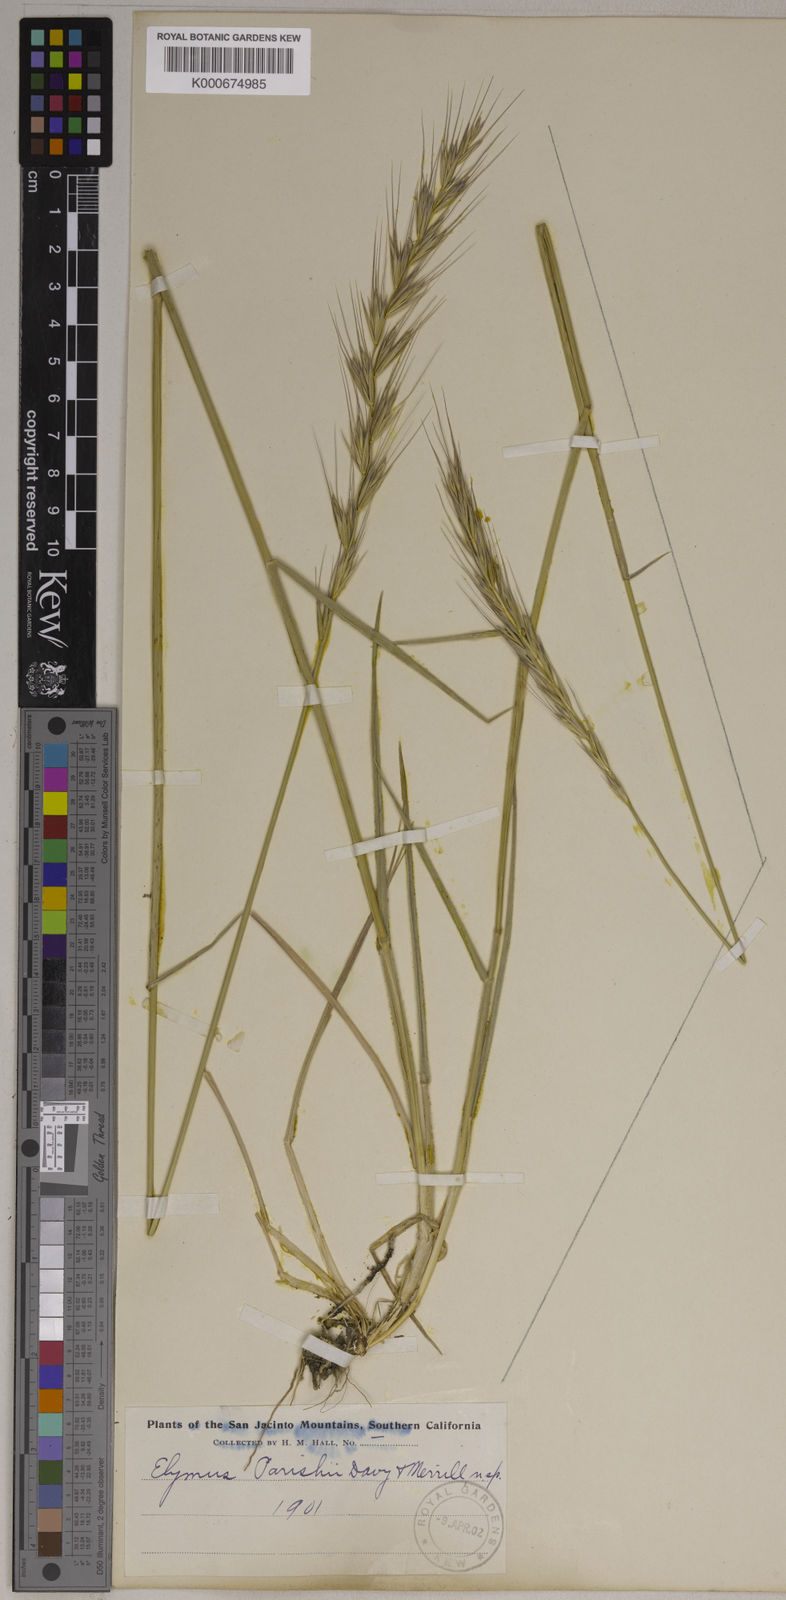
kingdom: Plantae
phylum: Tracheophyta
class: Liliopsida
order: Poales
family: Poaceae
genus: Elymus
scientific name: Elymus glaucus
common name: Blue wild rye
